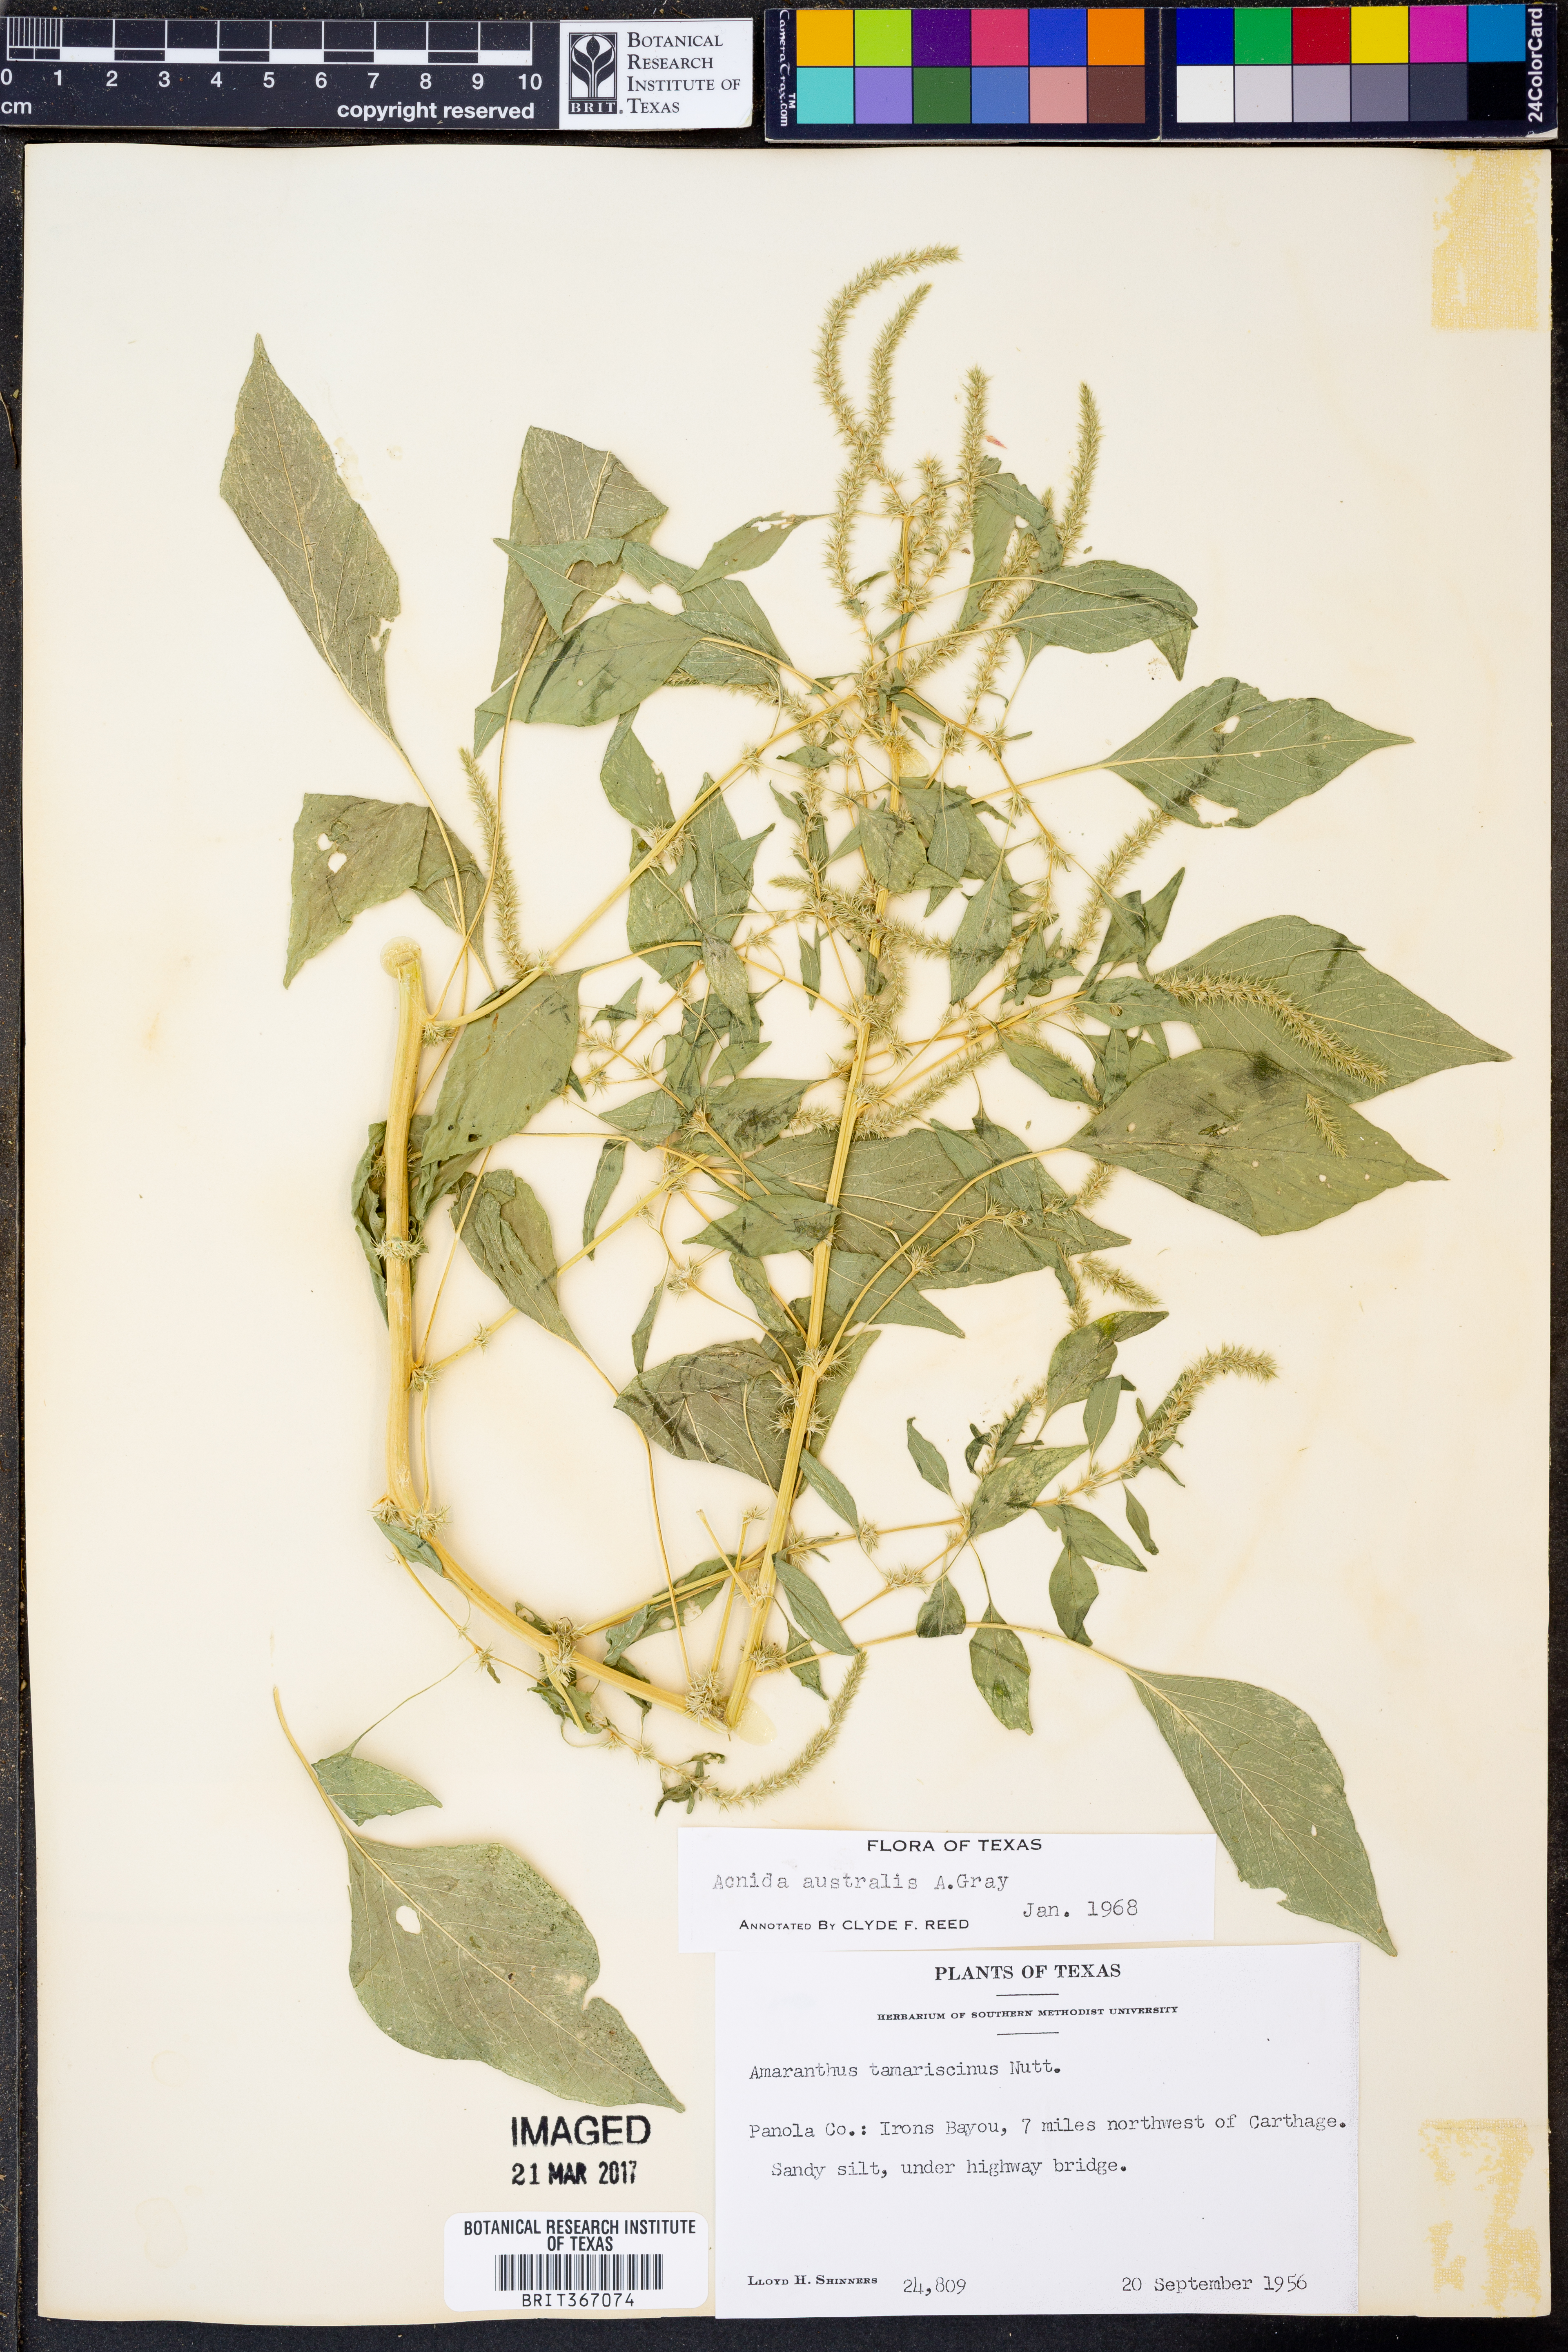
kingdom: Plantae
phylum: Tracheophyta
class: Magnoliopsida
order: Caryophyllales
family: Amaranthaceae
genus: Amaranthus
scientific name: Amaranthus australis
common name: Southern amaranth
